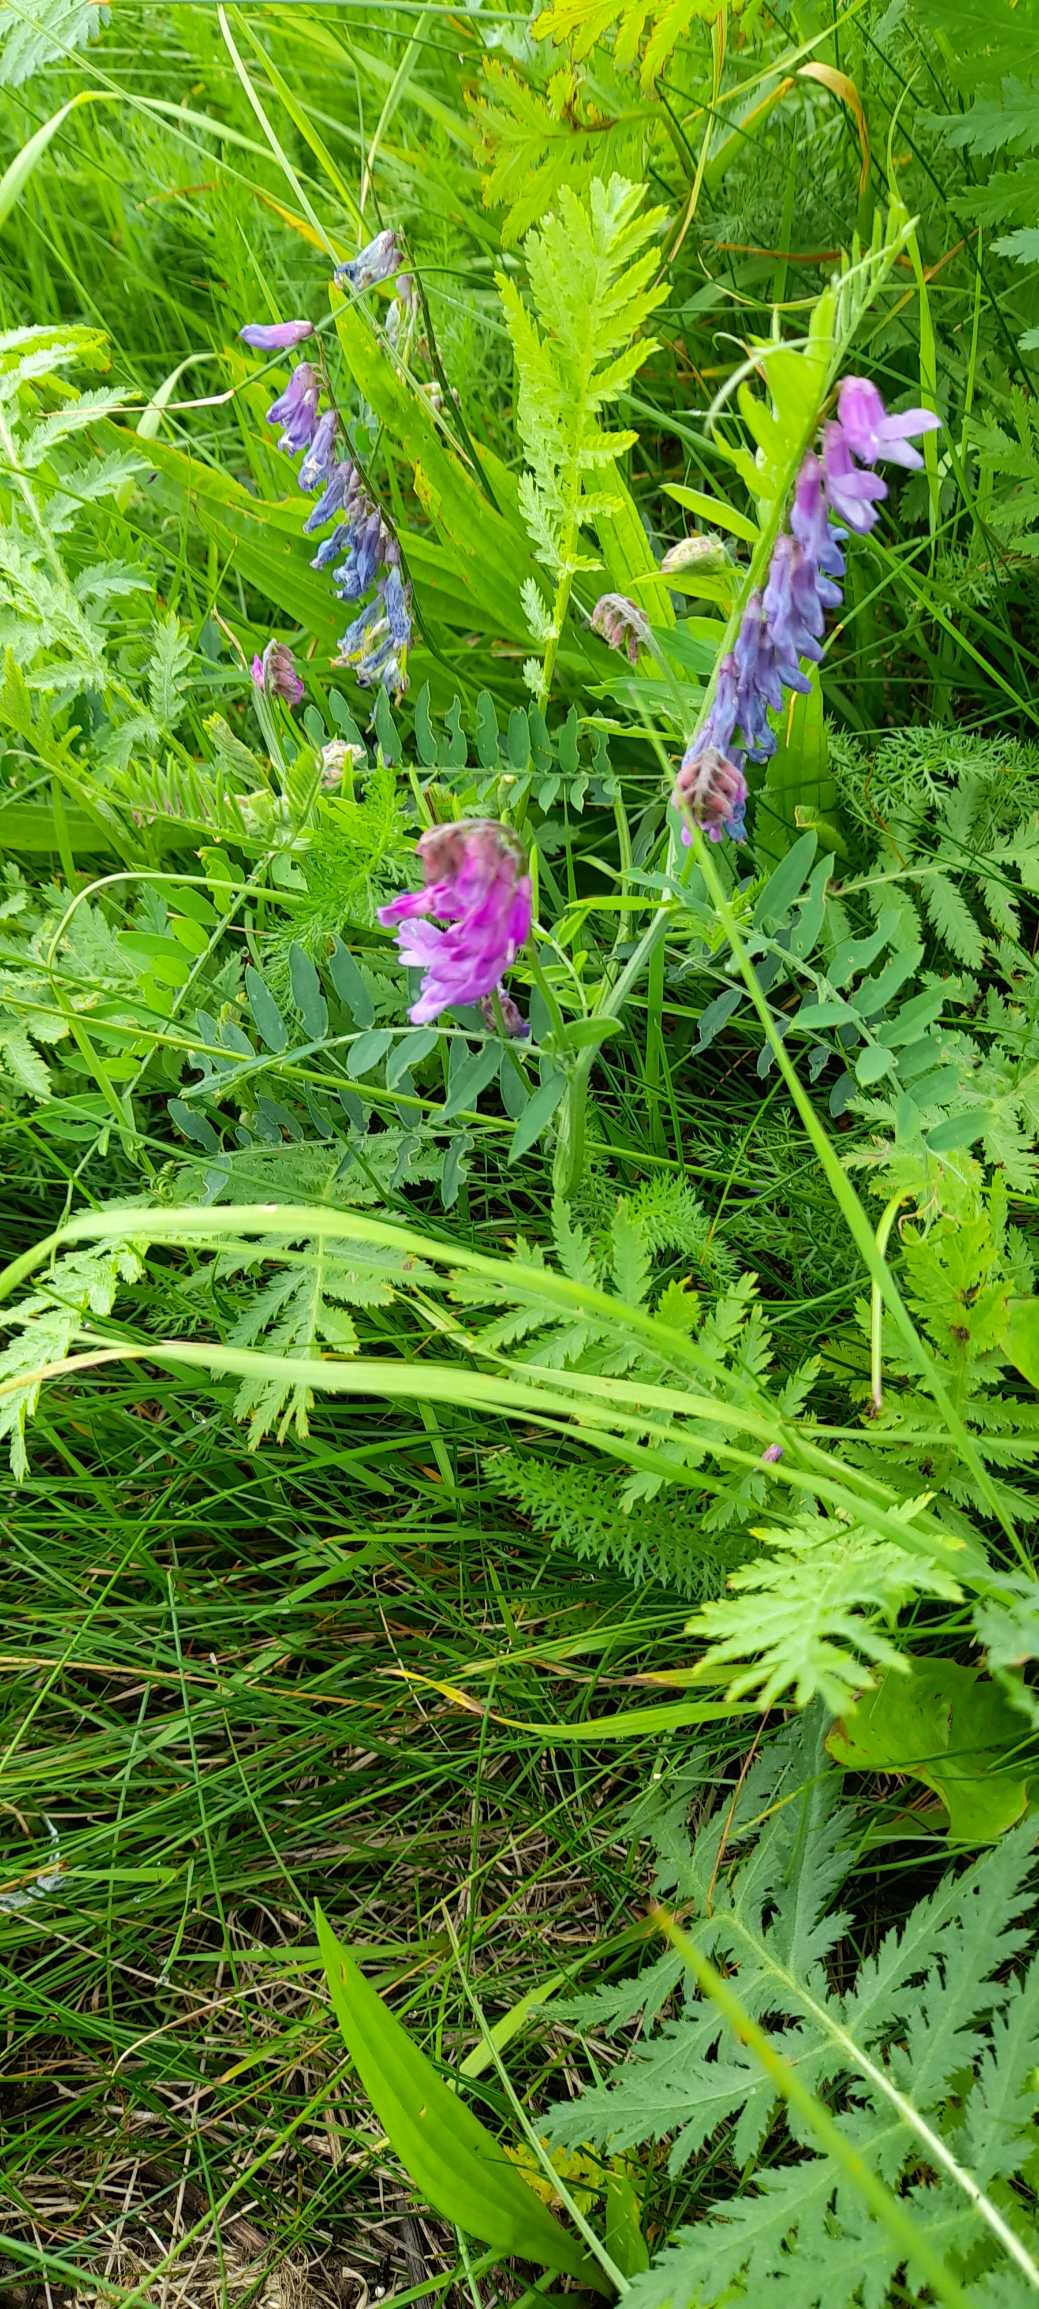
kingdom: Plantae
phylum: Tracheophyta
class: Magnoliopsida
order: Fabales
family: Fabaceae
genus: Vicia
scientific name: Vicia cracca
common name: Muse-vikke
